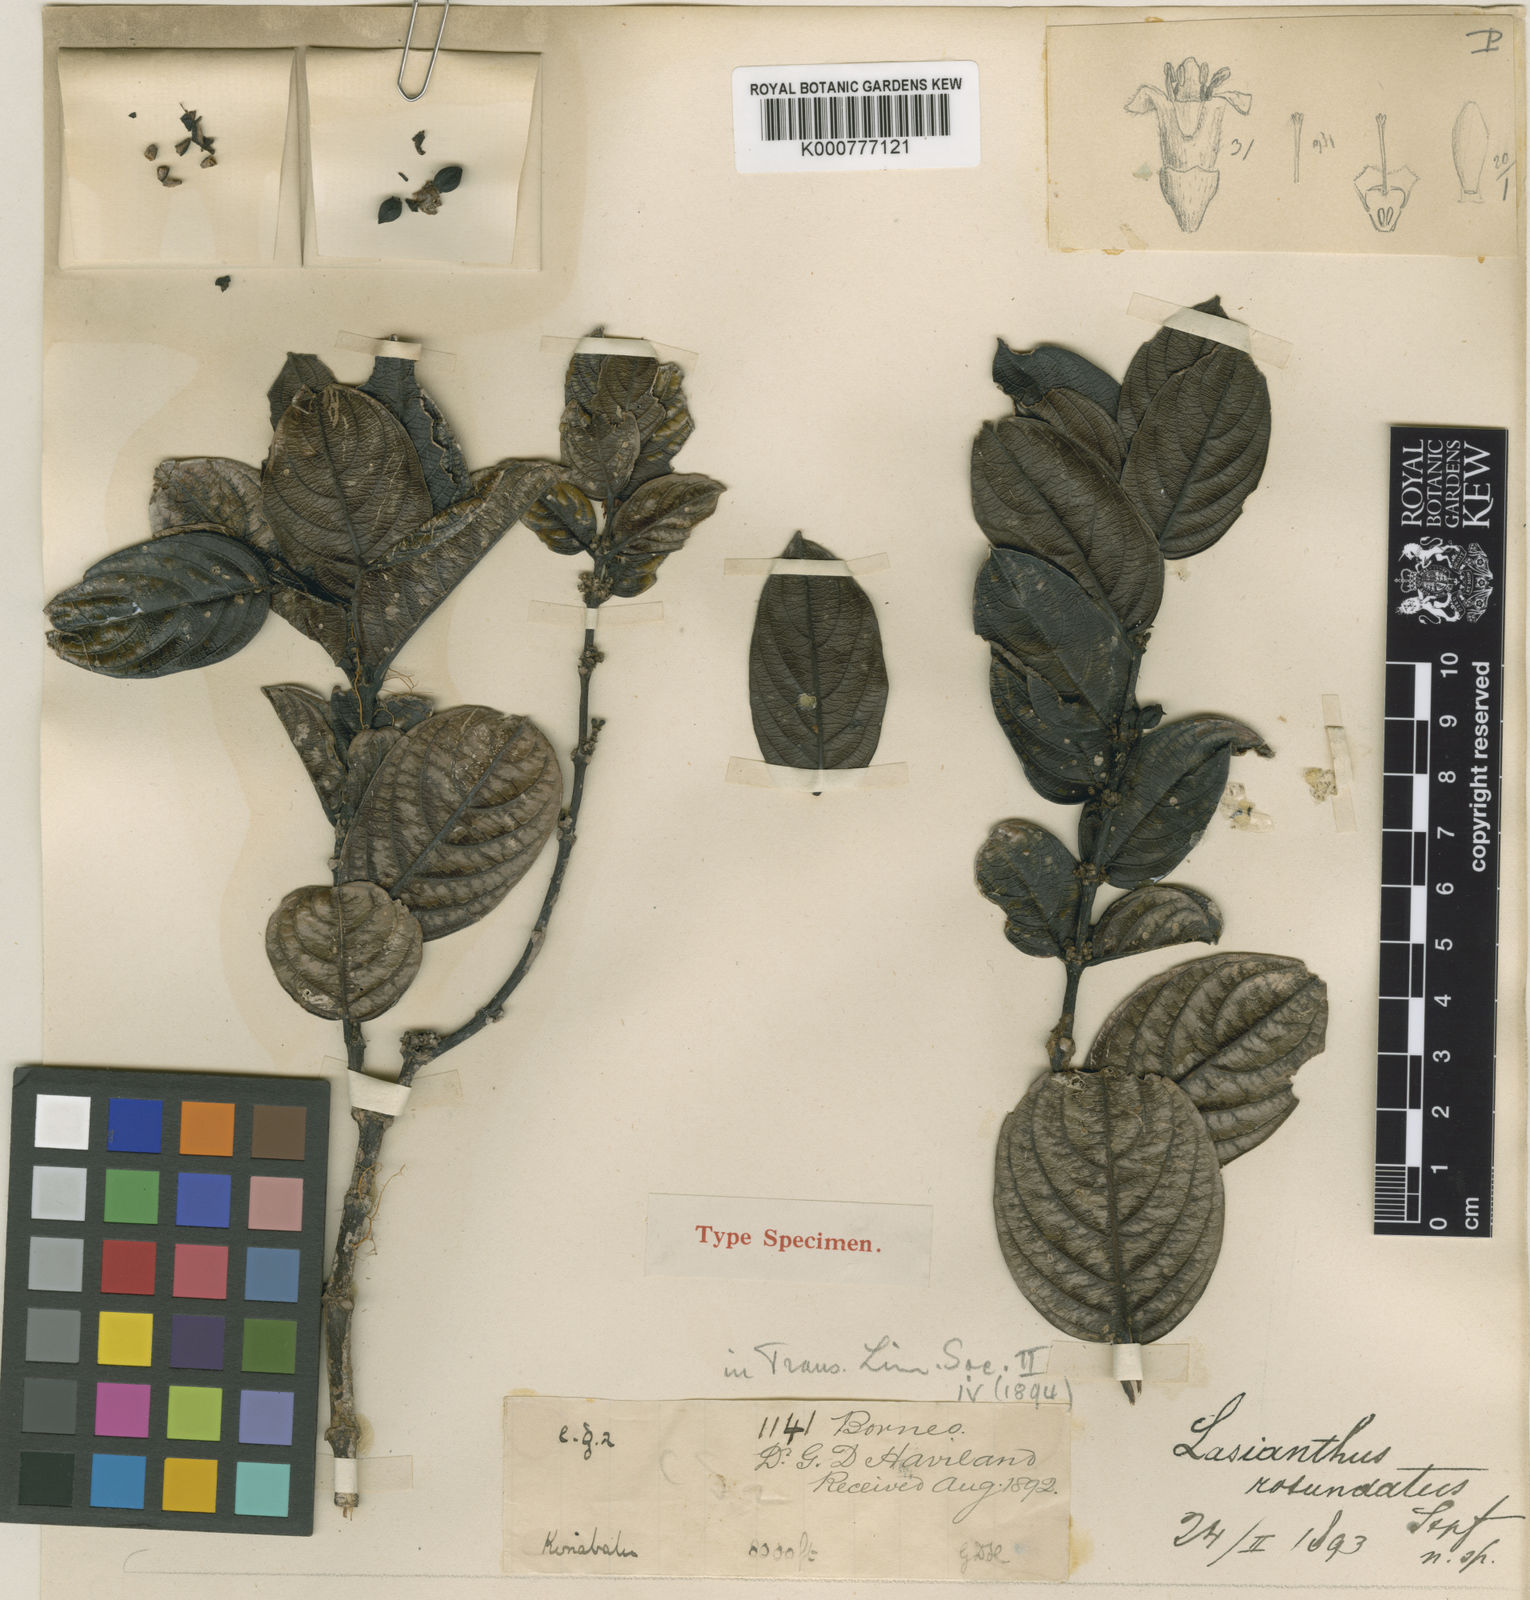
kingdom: Plantae
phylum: Tracheophyta
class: Magnoliopsida
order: Gentianales
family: Rubiaceae
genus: Lasianthus
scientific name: Lasianthus rotundatus
